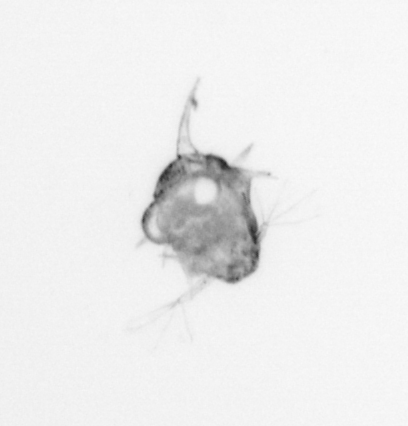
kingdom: Animalia
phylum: Arthropoda
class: Malacostraca
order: Decapoda
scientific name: Decapoda
